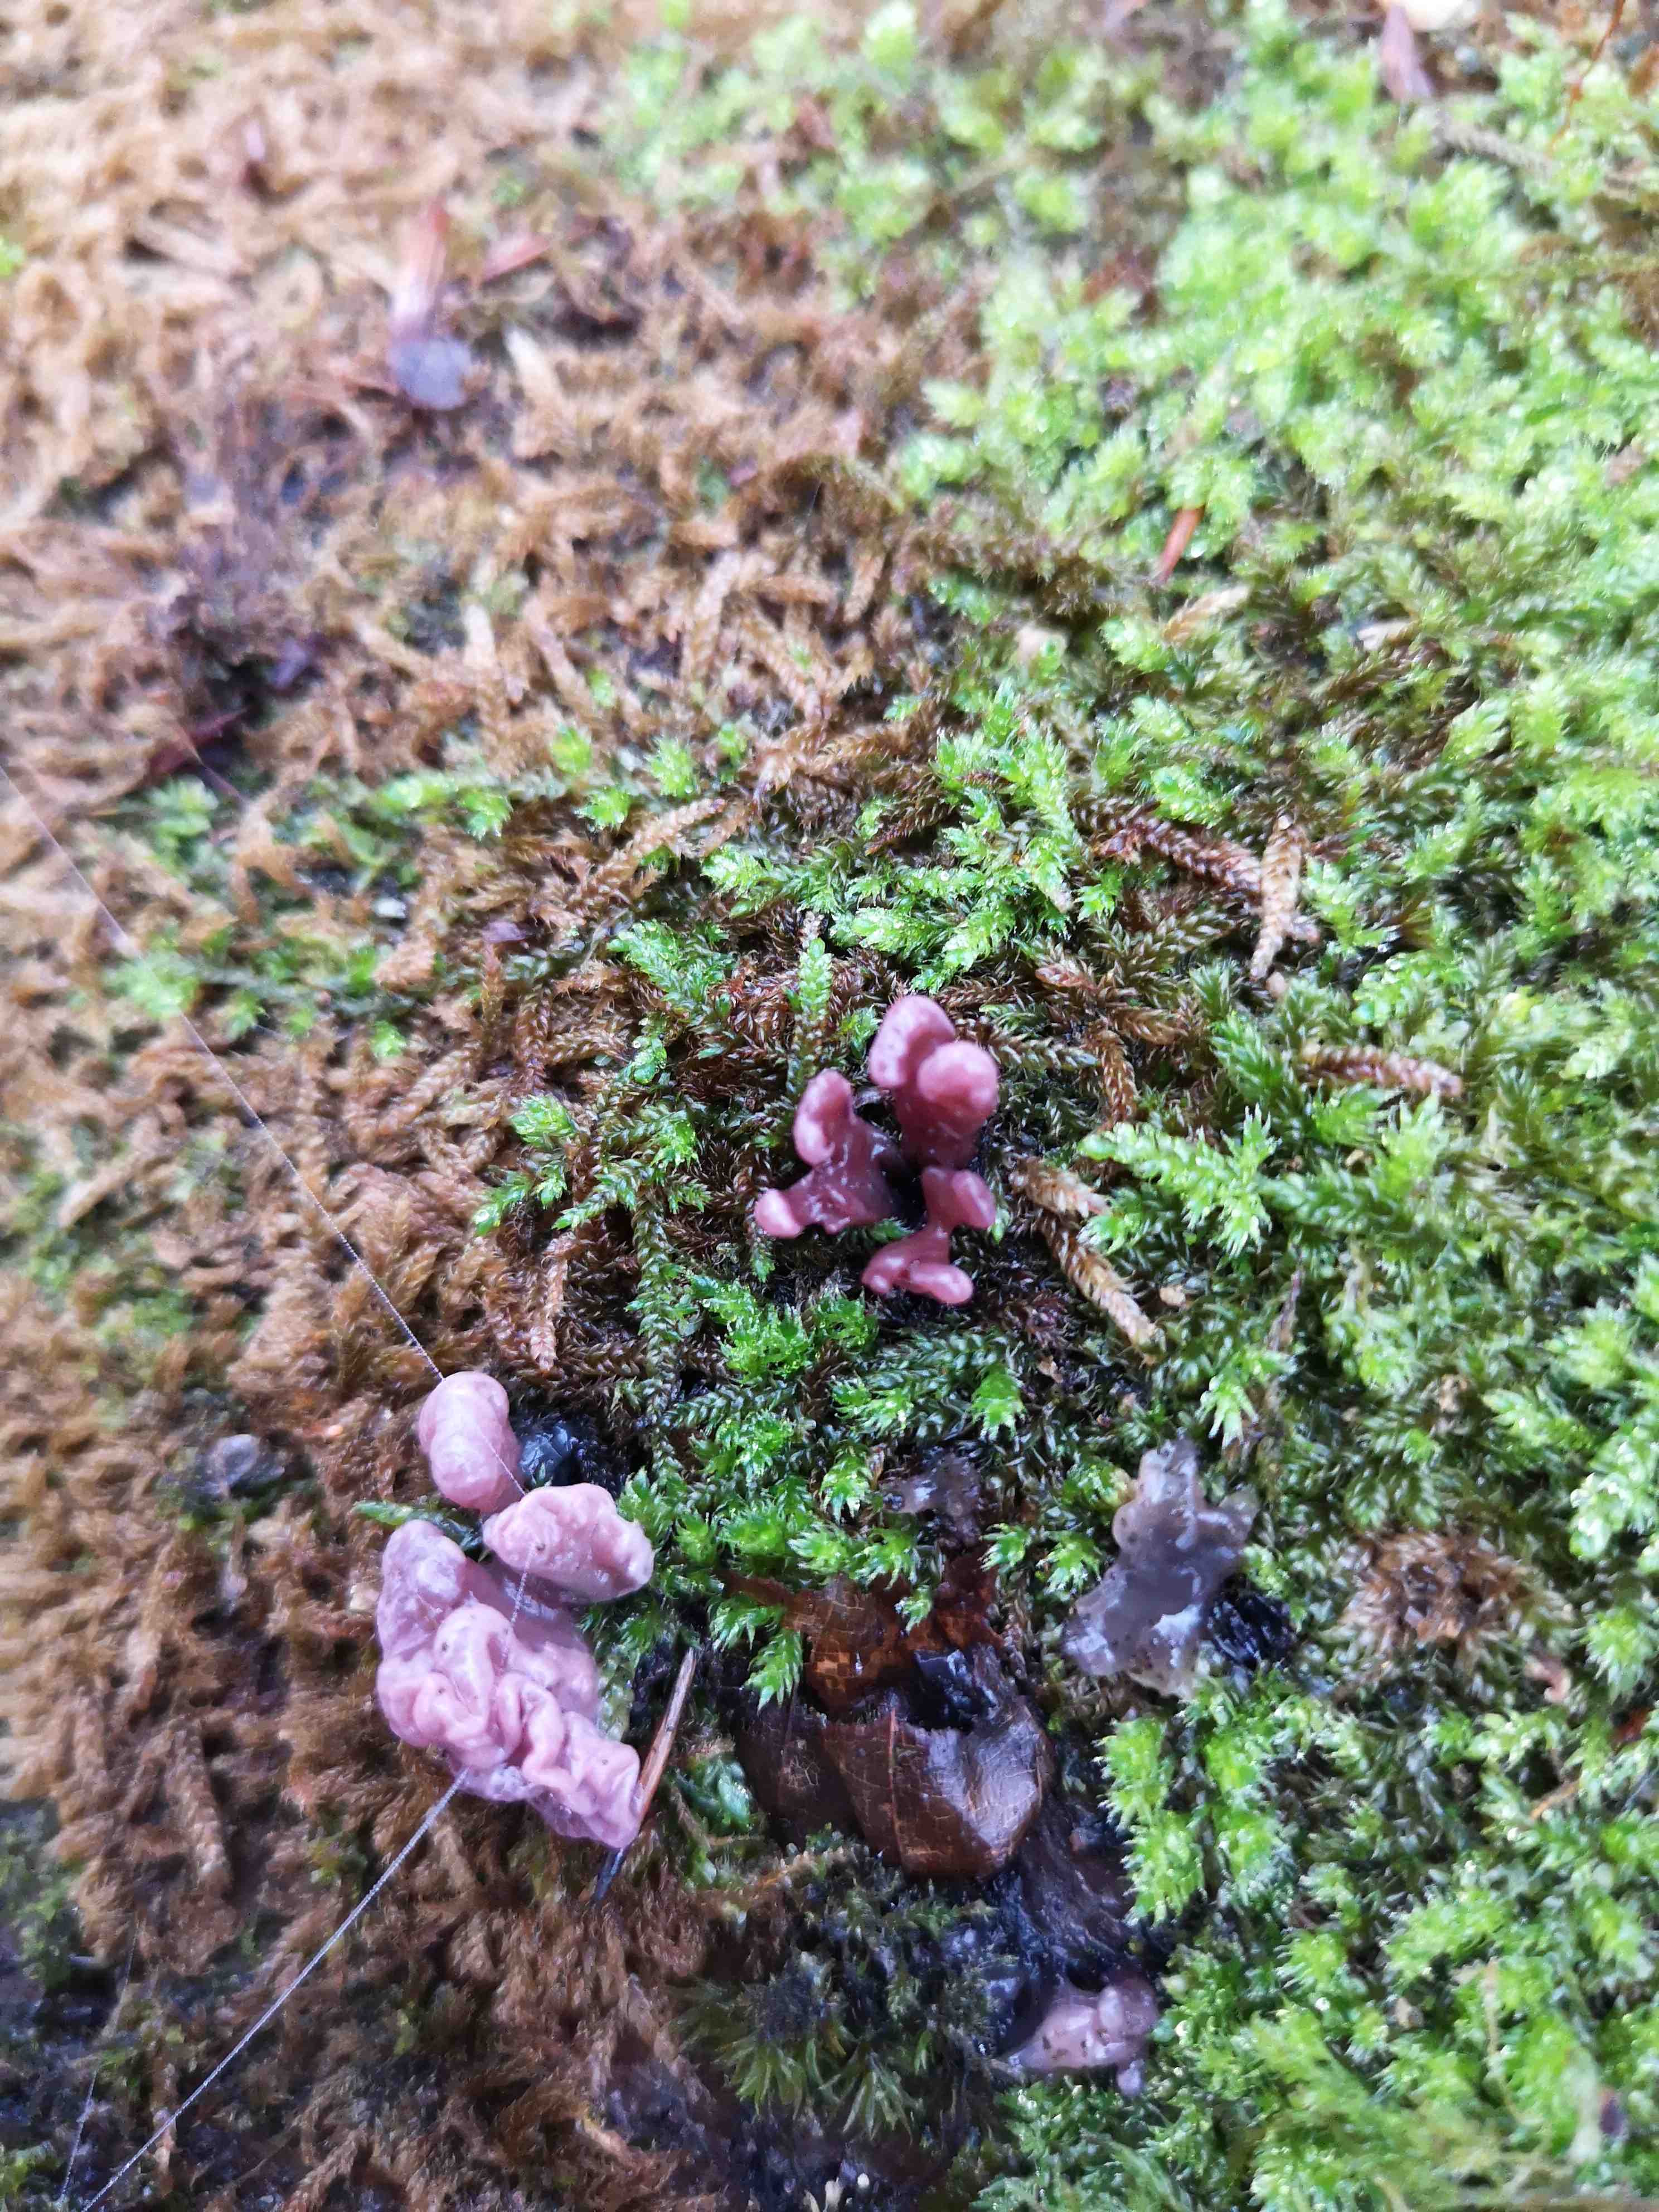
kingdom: Fungi
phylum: Ascomycota
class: Leotiomycetes
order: Helotiales
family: Gelatinodiscaceae
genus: Ascocoryne
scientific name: Ascocoryne sarcoides
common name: rødlilla sejskive
